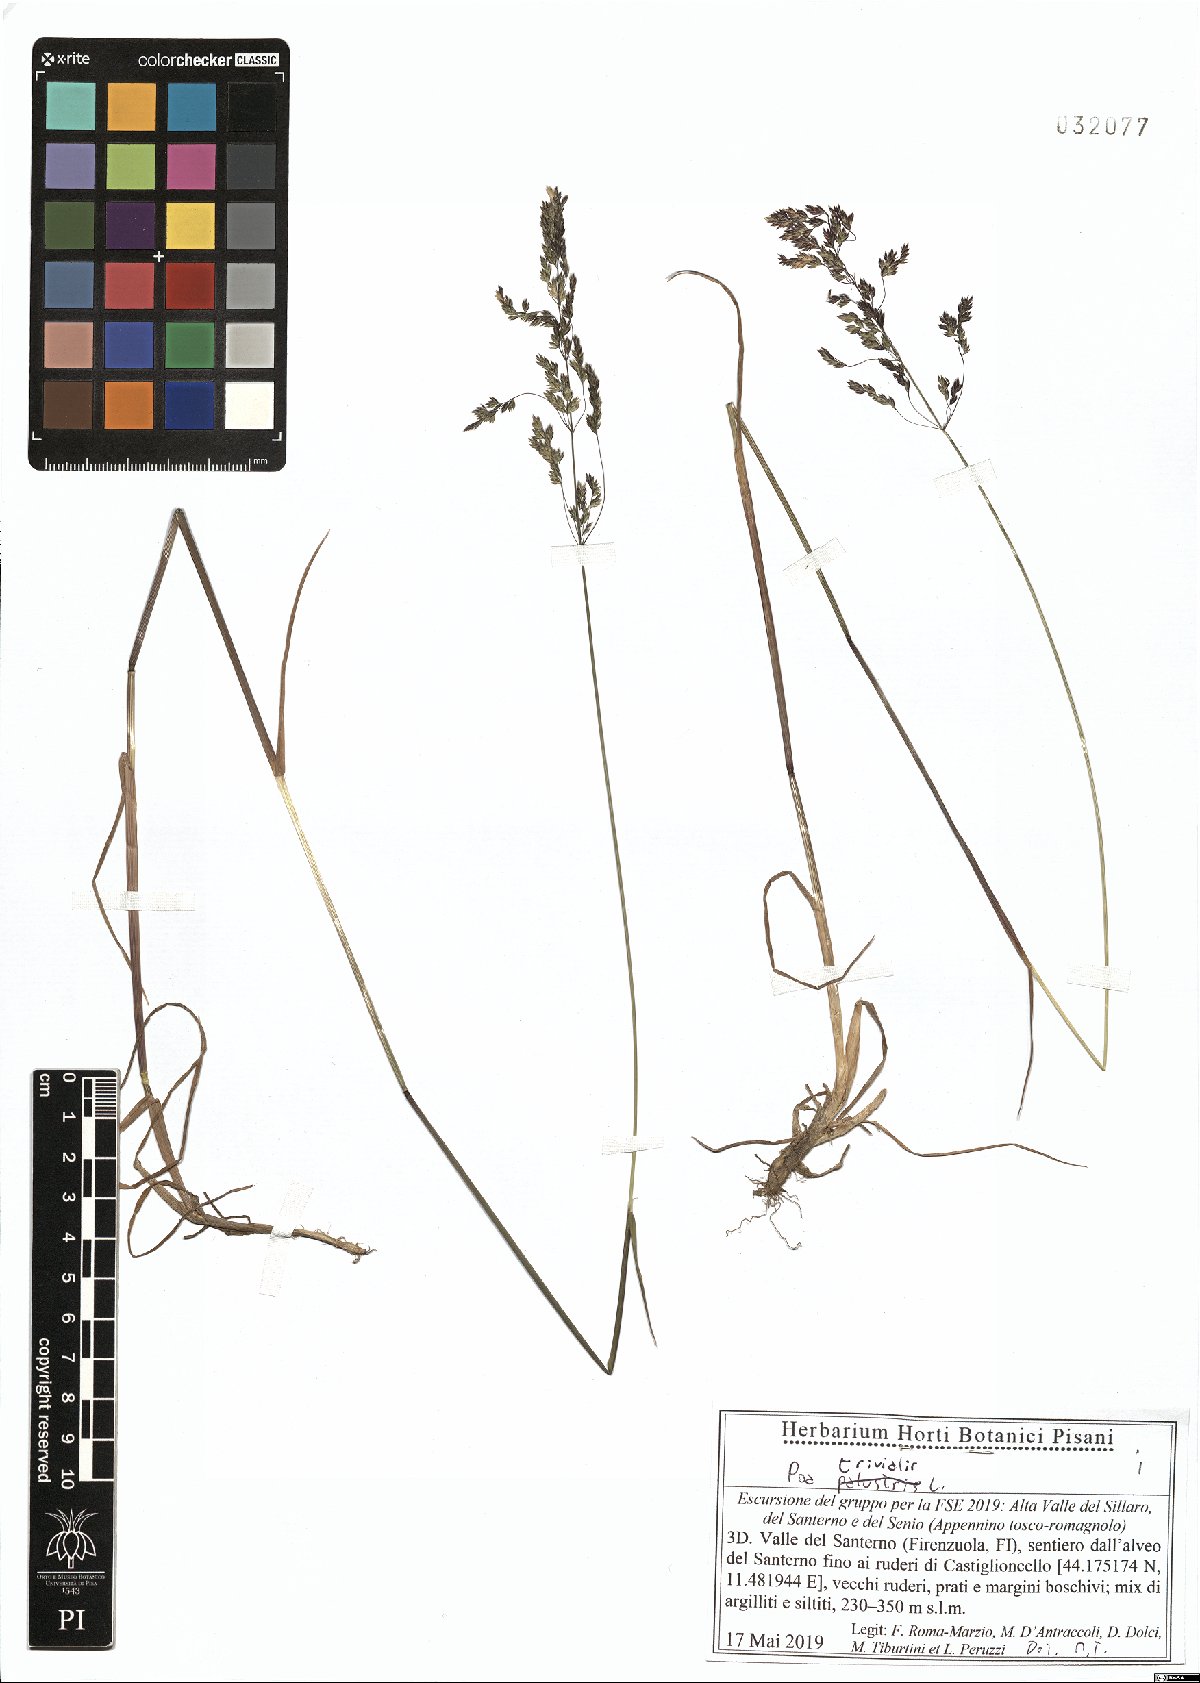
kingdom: Plantae
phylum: Tracheophyta
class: Liliopsida
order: Poales
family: Poaceae
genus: Poa
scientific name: Poa trivialis
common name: Rough bluegrass
